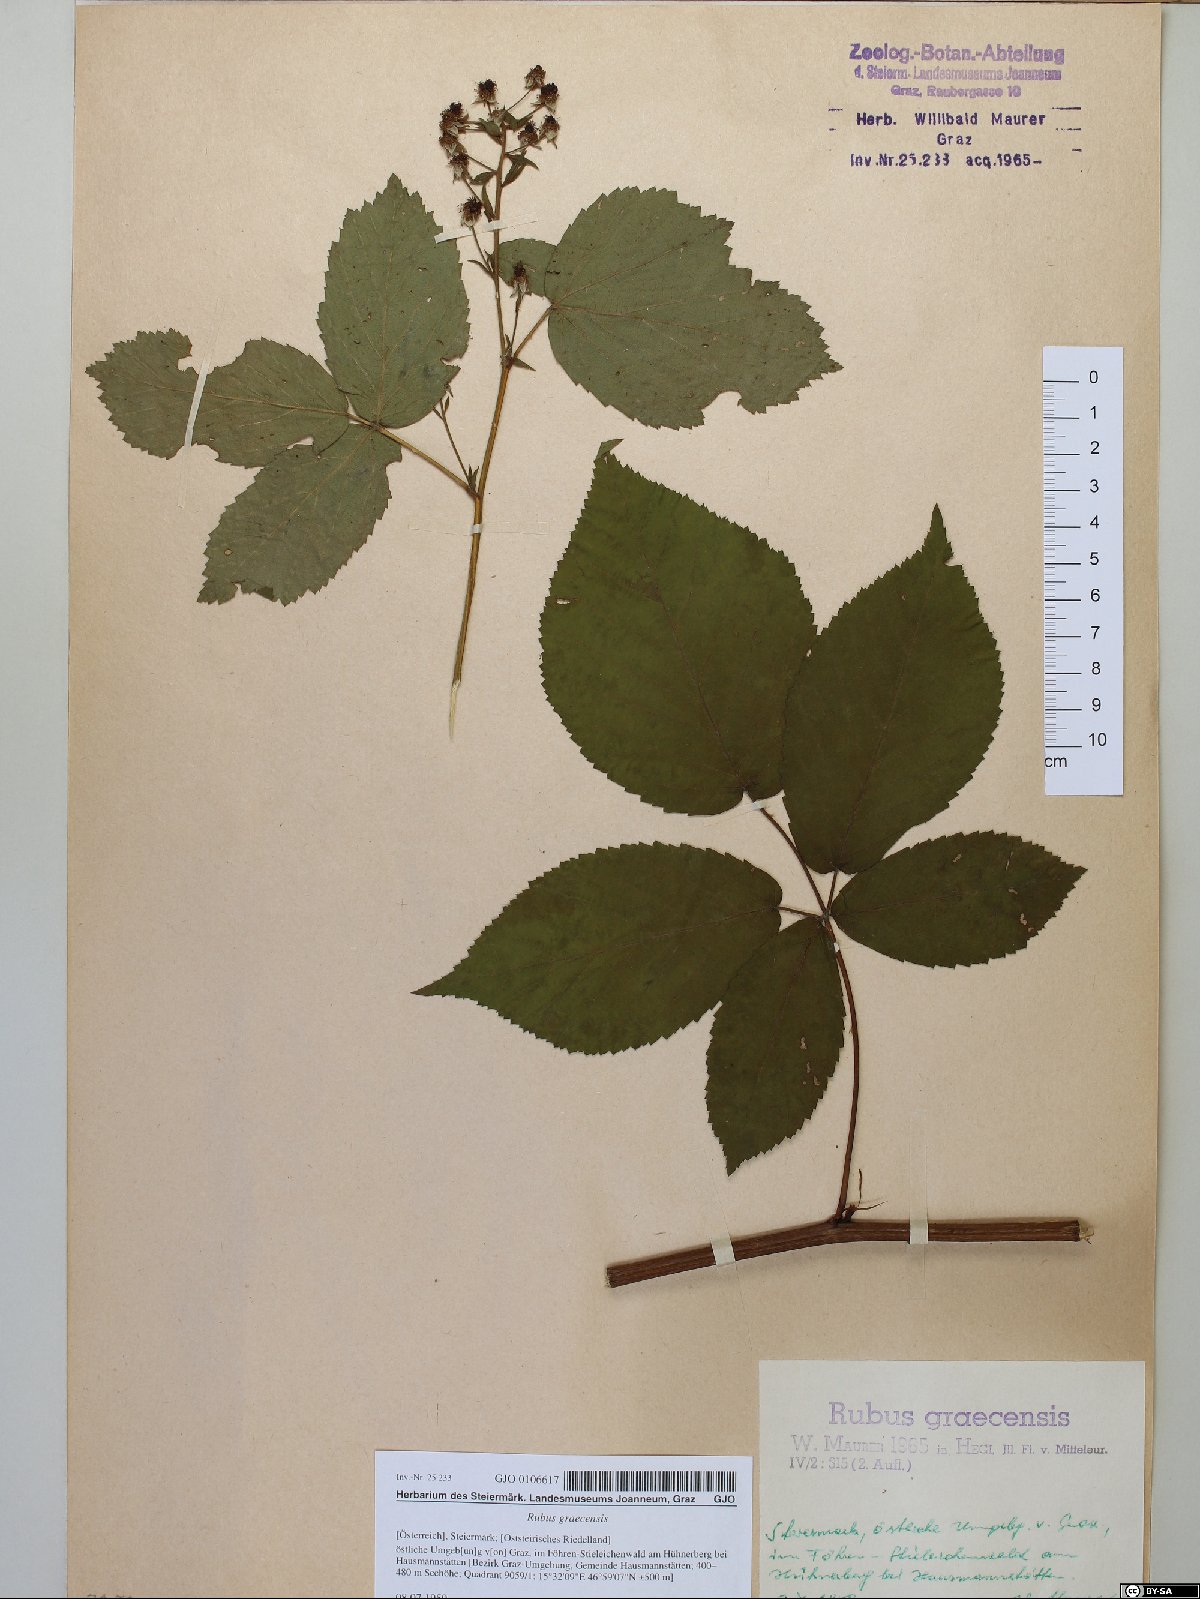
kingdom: Plantae
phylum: Tracheophyta
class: Magnoliopsida
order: Rosales
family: Rosaceae
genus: Rubus
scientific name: Rubus graecensis
